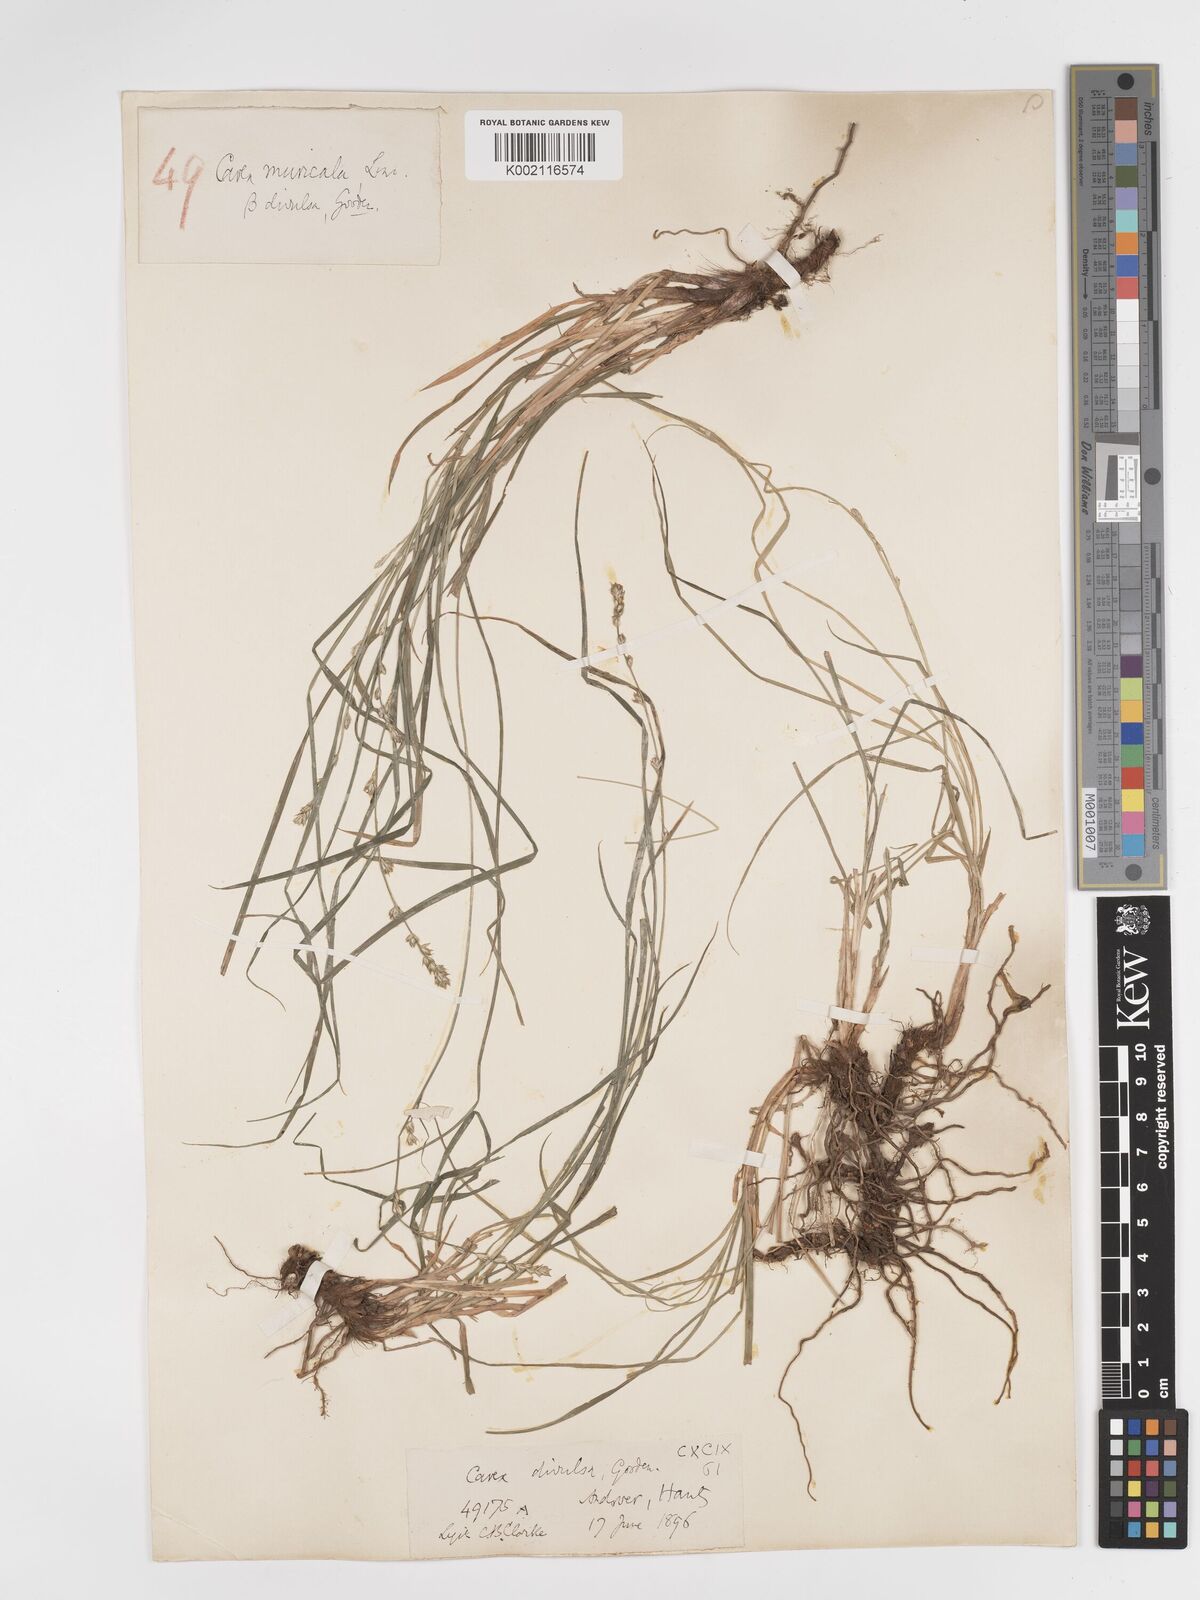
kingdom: Plantae
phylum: Tracheophyta
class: Liliopsida
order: Poales
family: Cyperaceae
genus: Carex
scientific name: Carex divulsa
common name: Grassland sedge
